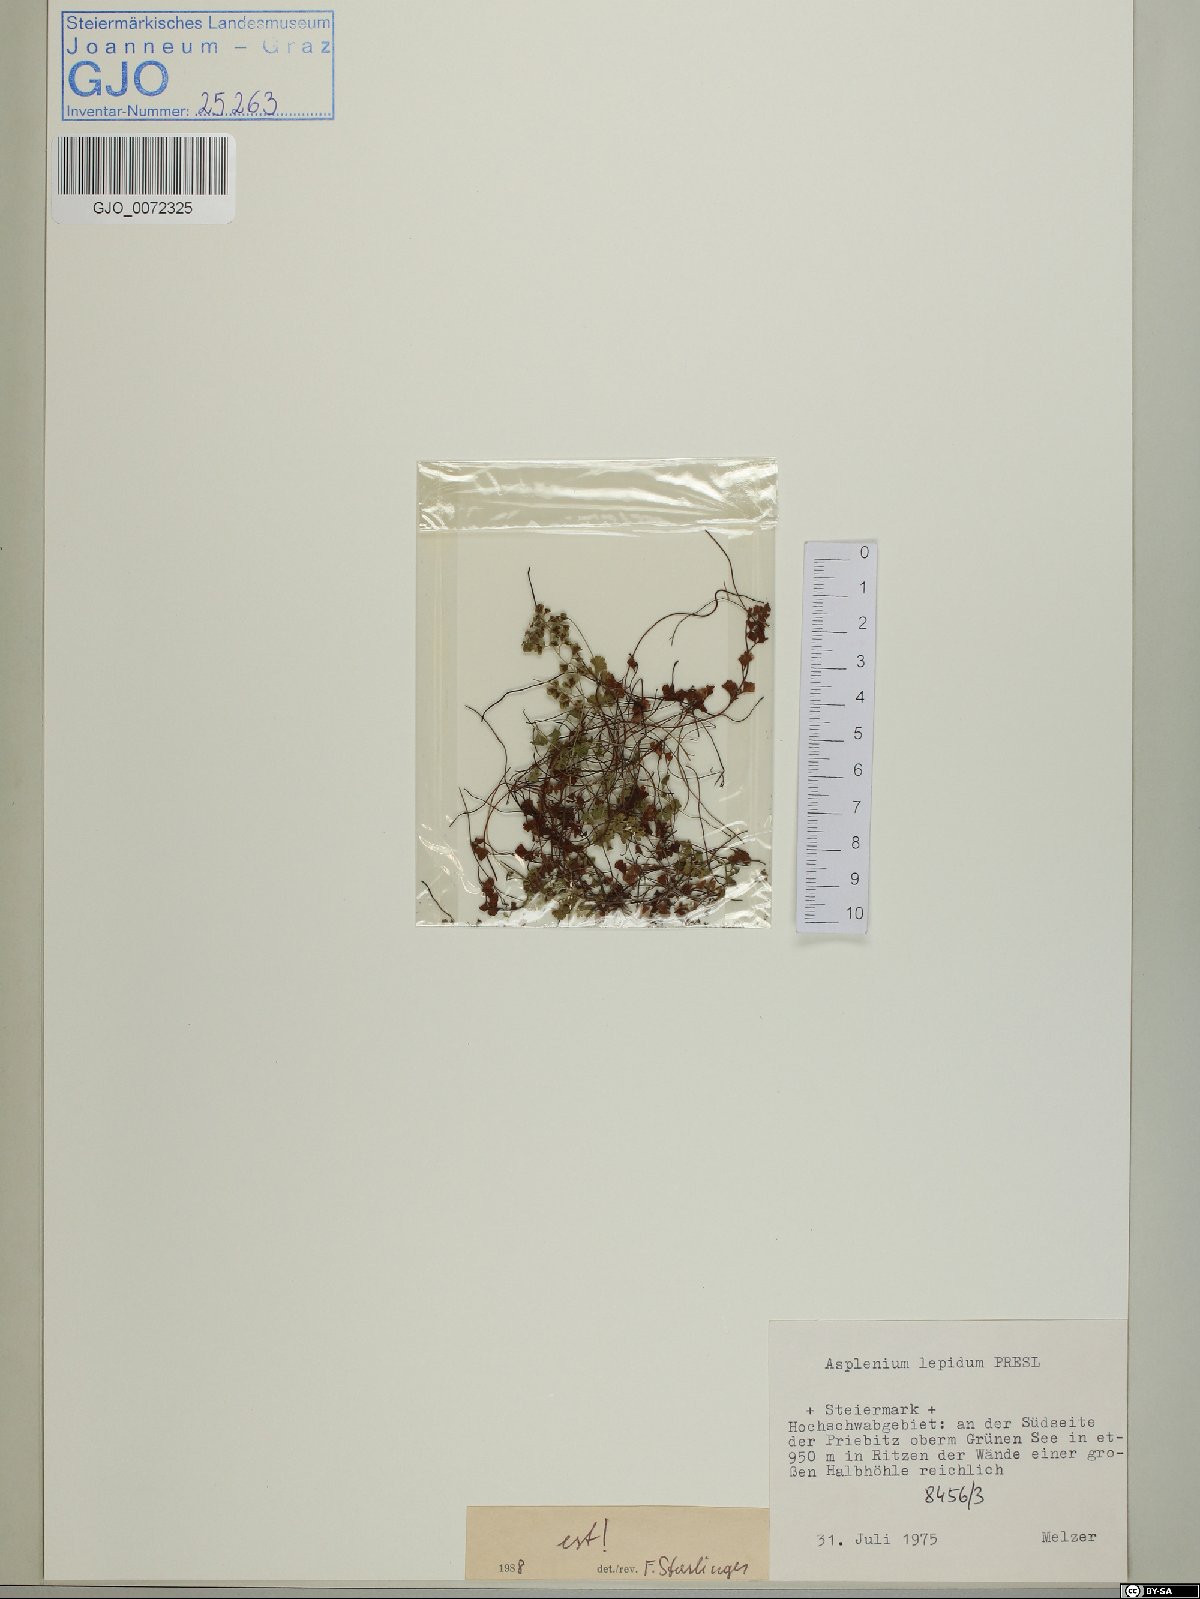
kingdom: Plantae
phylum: Tracheophyta
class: Polypodiopsida
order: Polypodiales
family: Aspleniaceae
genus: Asplenium
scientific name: Asplenium lepidum
